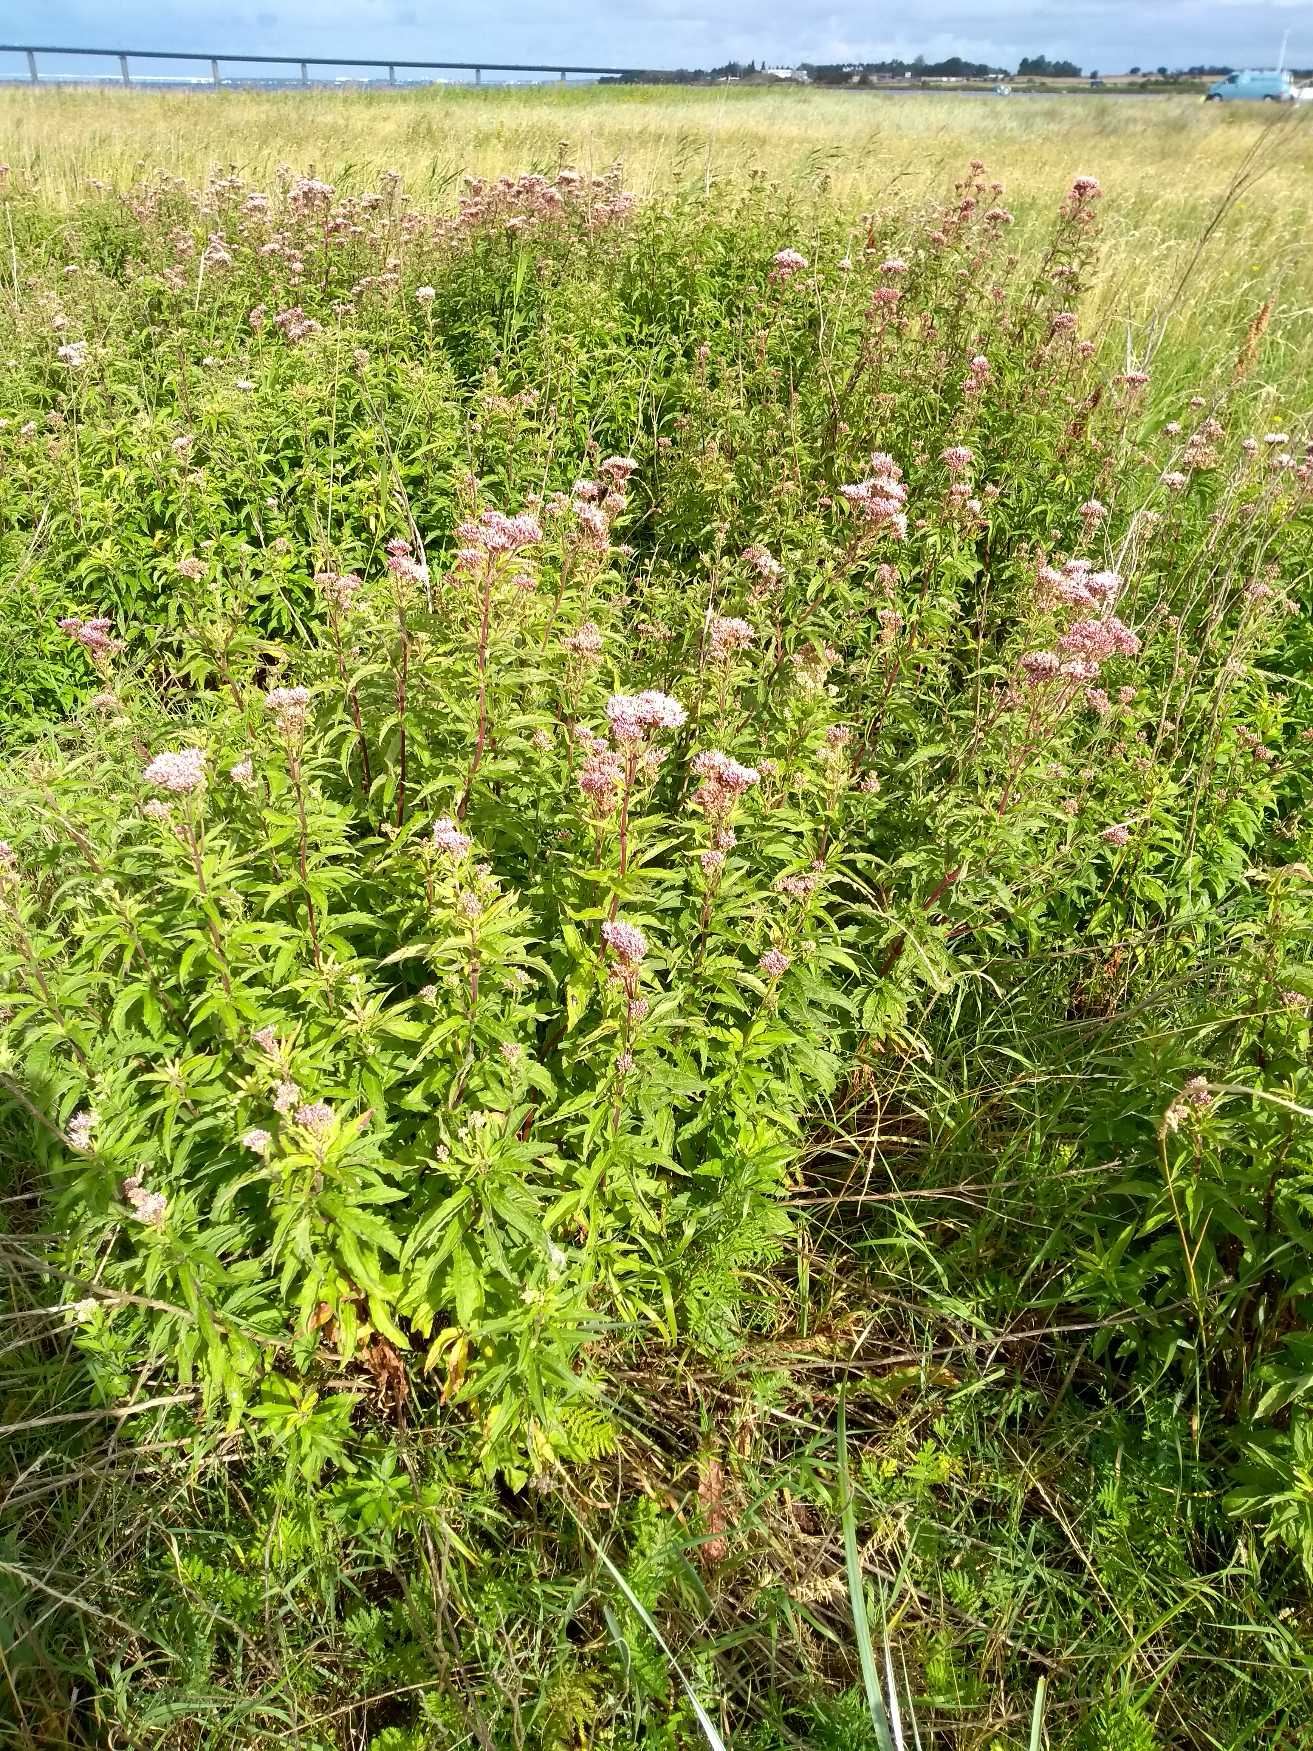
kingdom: Plantae
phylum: Tracheophyta
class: Magnoliopsida
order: Asterales
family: Asteraceae
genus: Eupatorium
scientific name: Eupatorium cannabinum
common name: Hjortetrøst
